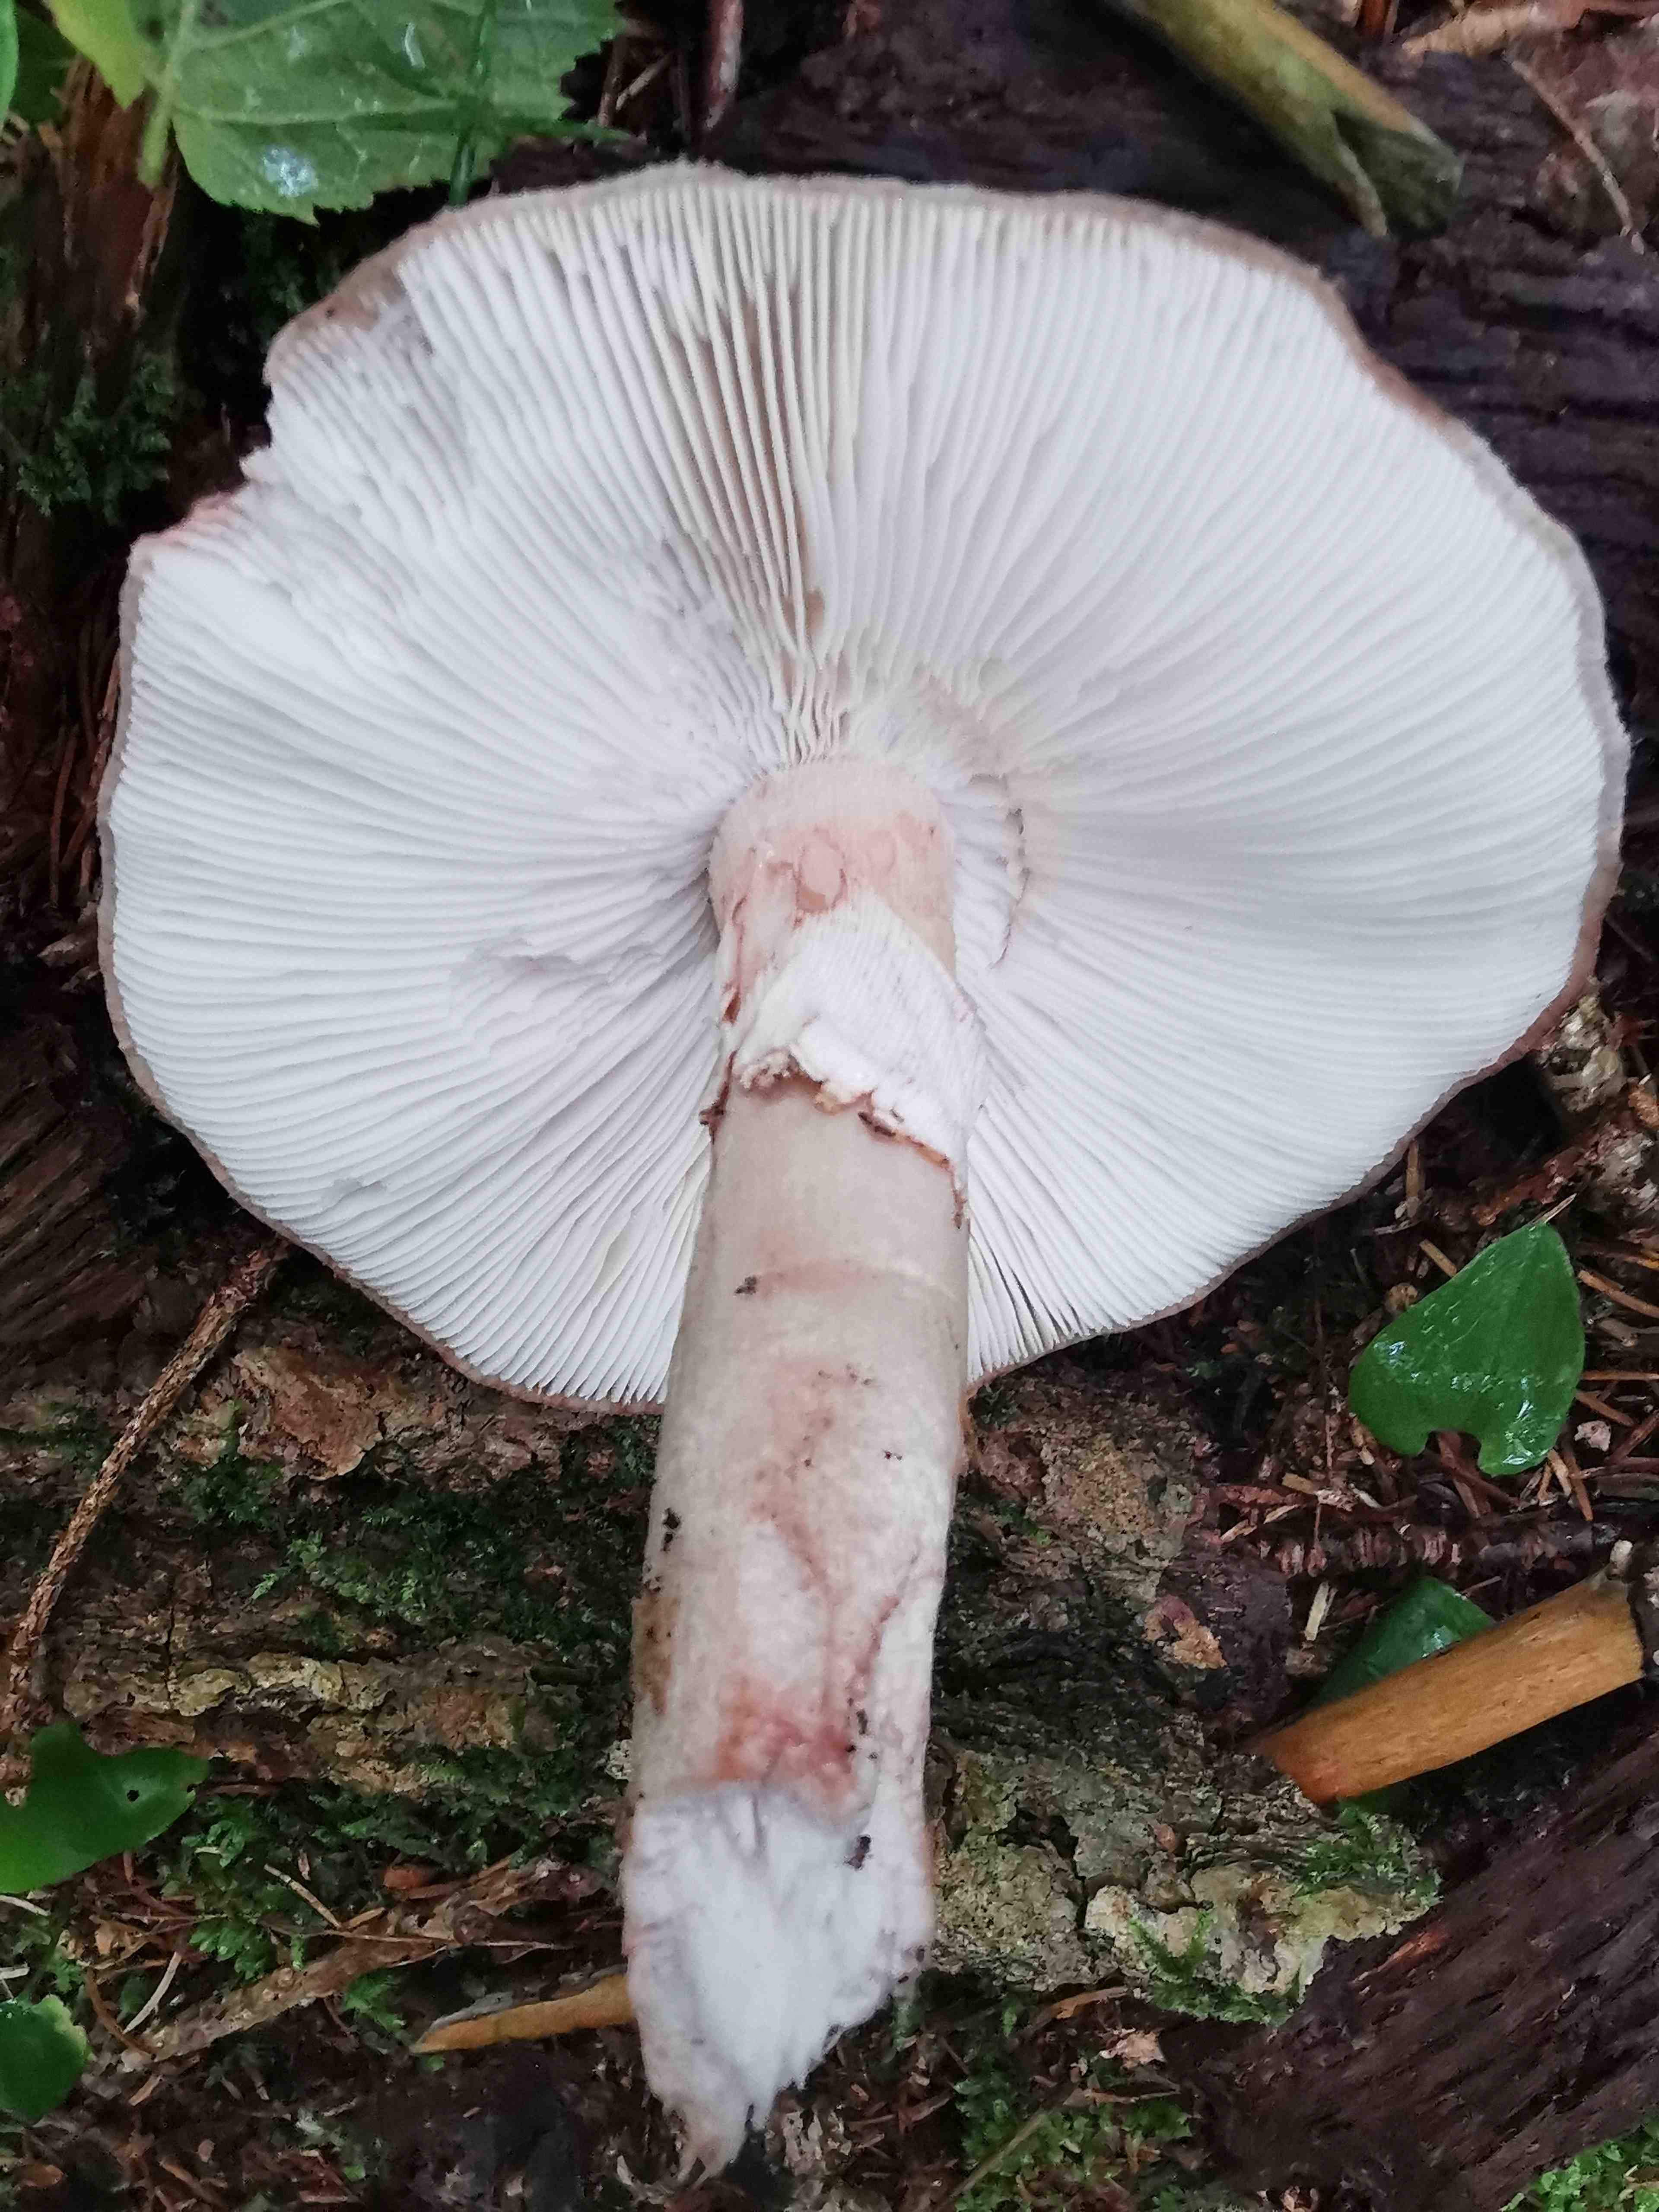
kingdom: Fungi
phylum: Basidiomycota
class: Agaricomycetes
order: Agaricales
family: Amanitaceae
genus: Amanita
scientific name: Amanita rubescens
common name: rødmende fluesvamp
